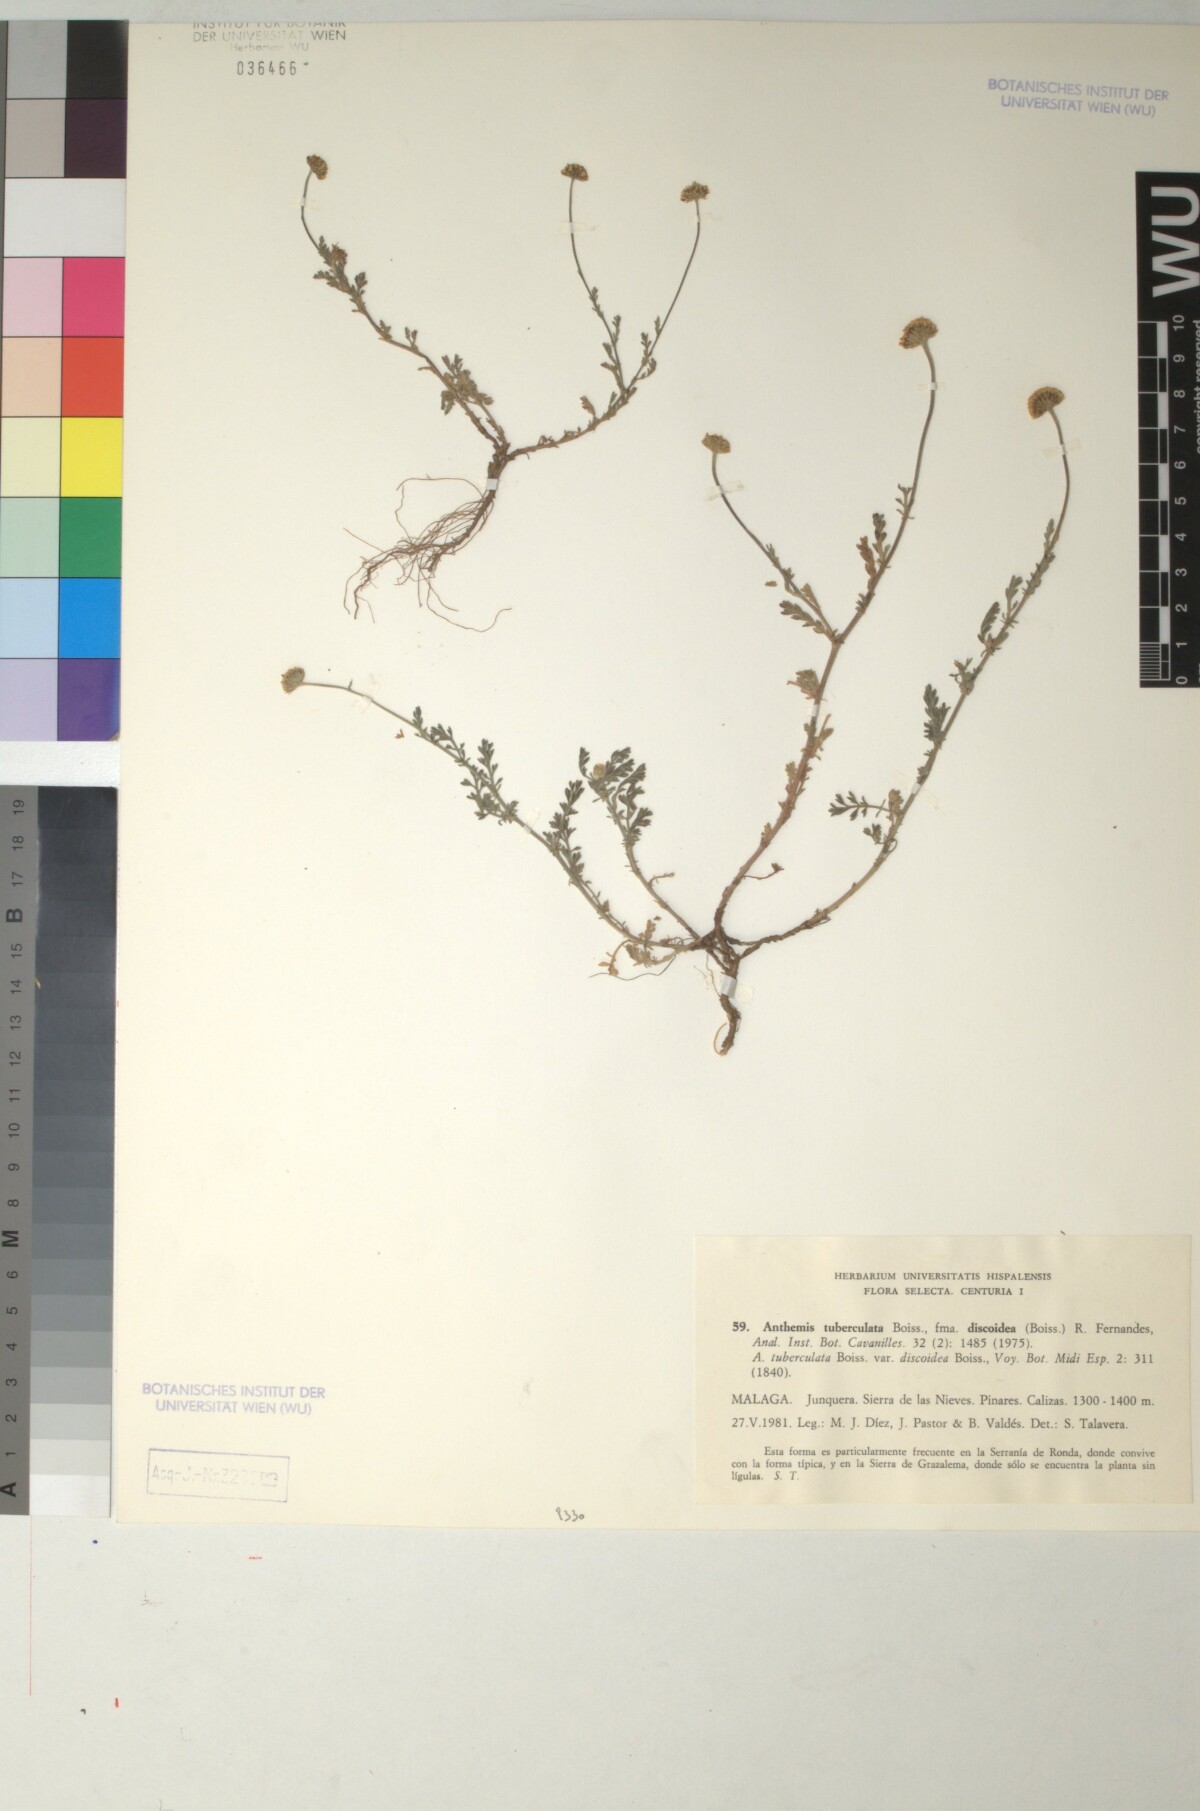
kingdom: Plantae
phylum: Tracheophyta
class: Magnoliopsida
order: Asterales
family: Asteraceae
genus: Anthemis
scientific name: Anthemis pedunculata
